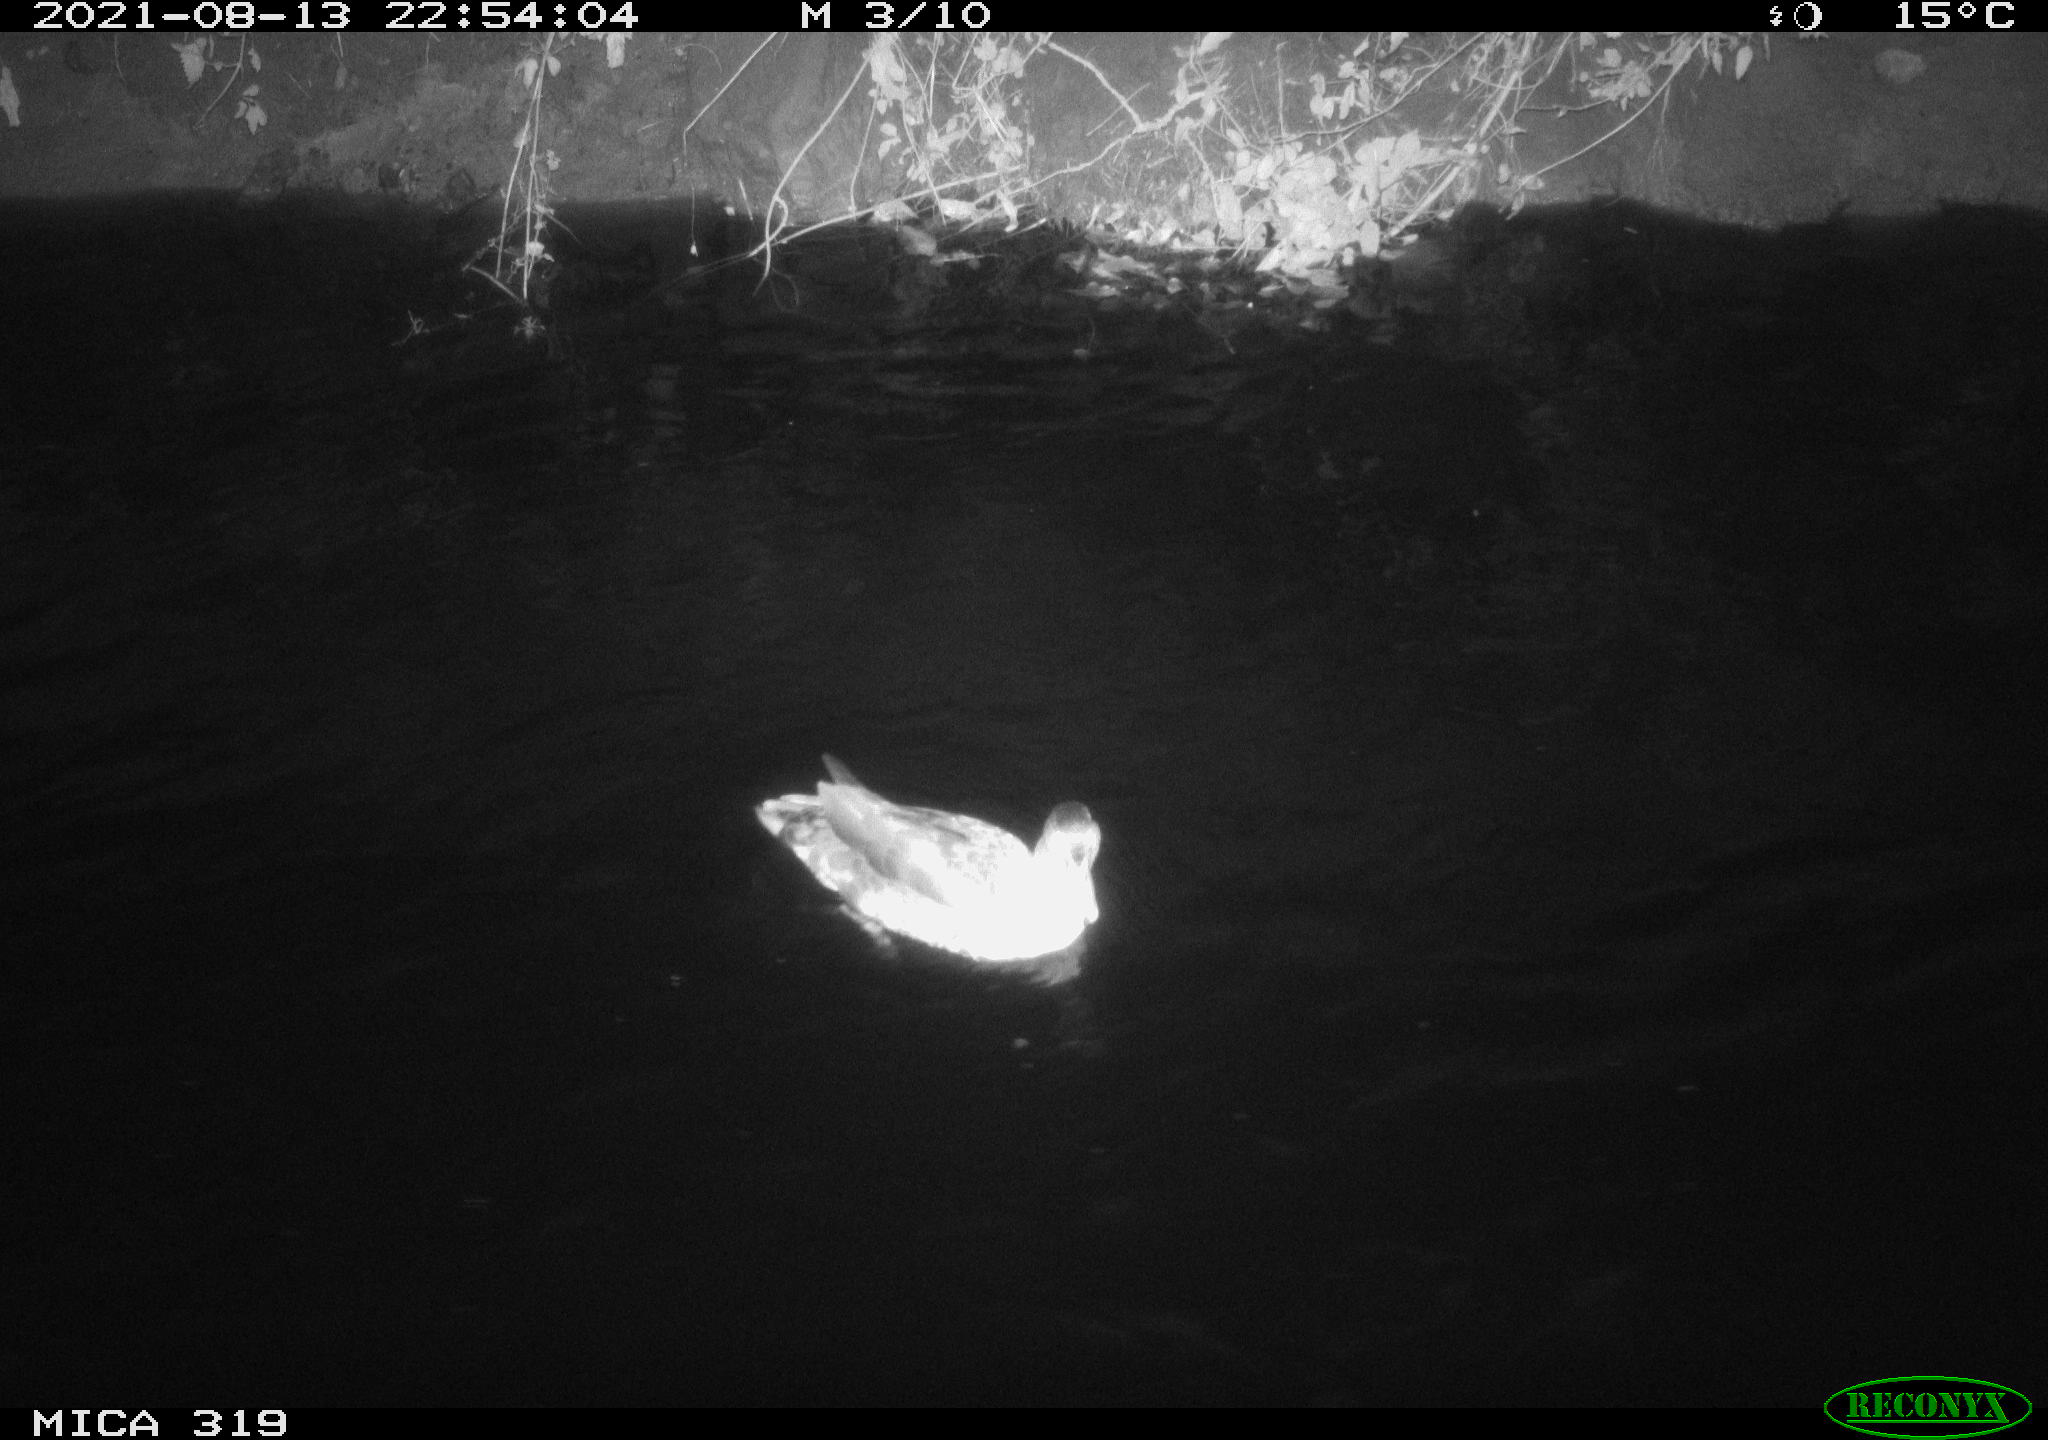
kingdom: Animalia
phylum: Chordata
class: Aves
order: Anseriformes
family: Anatidae
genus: Anas
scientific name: Anas platyrhynchos
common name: Mallard
